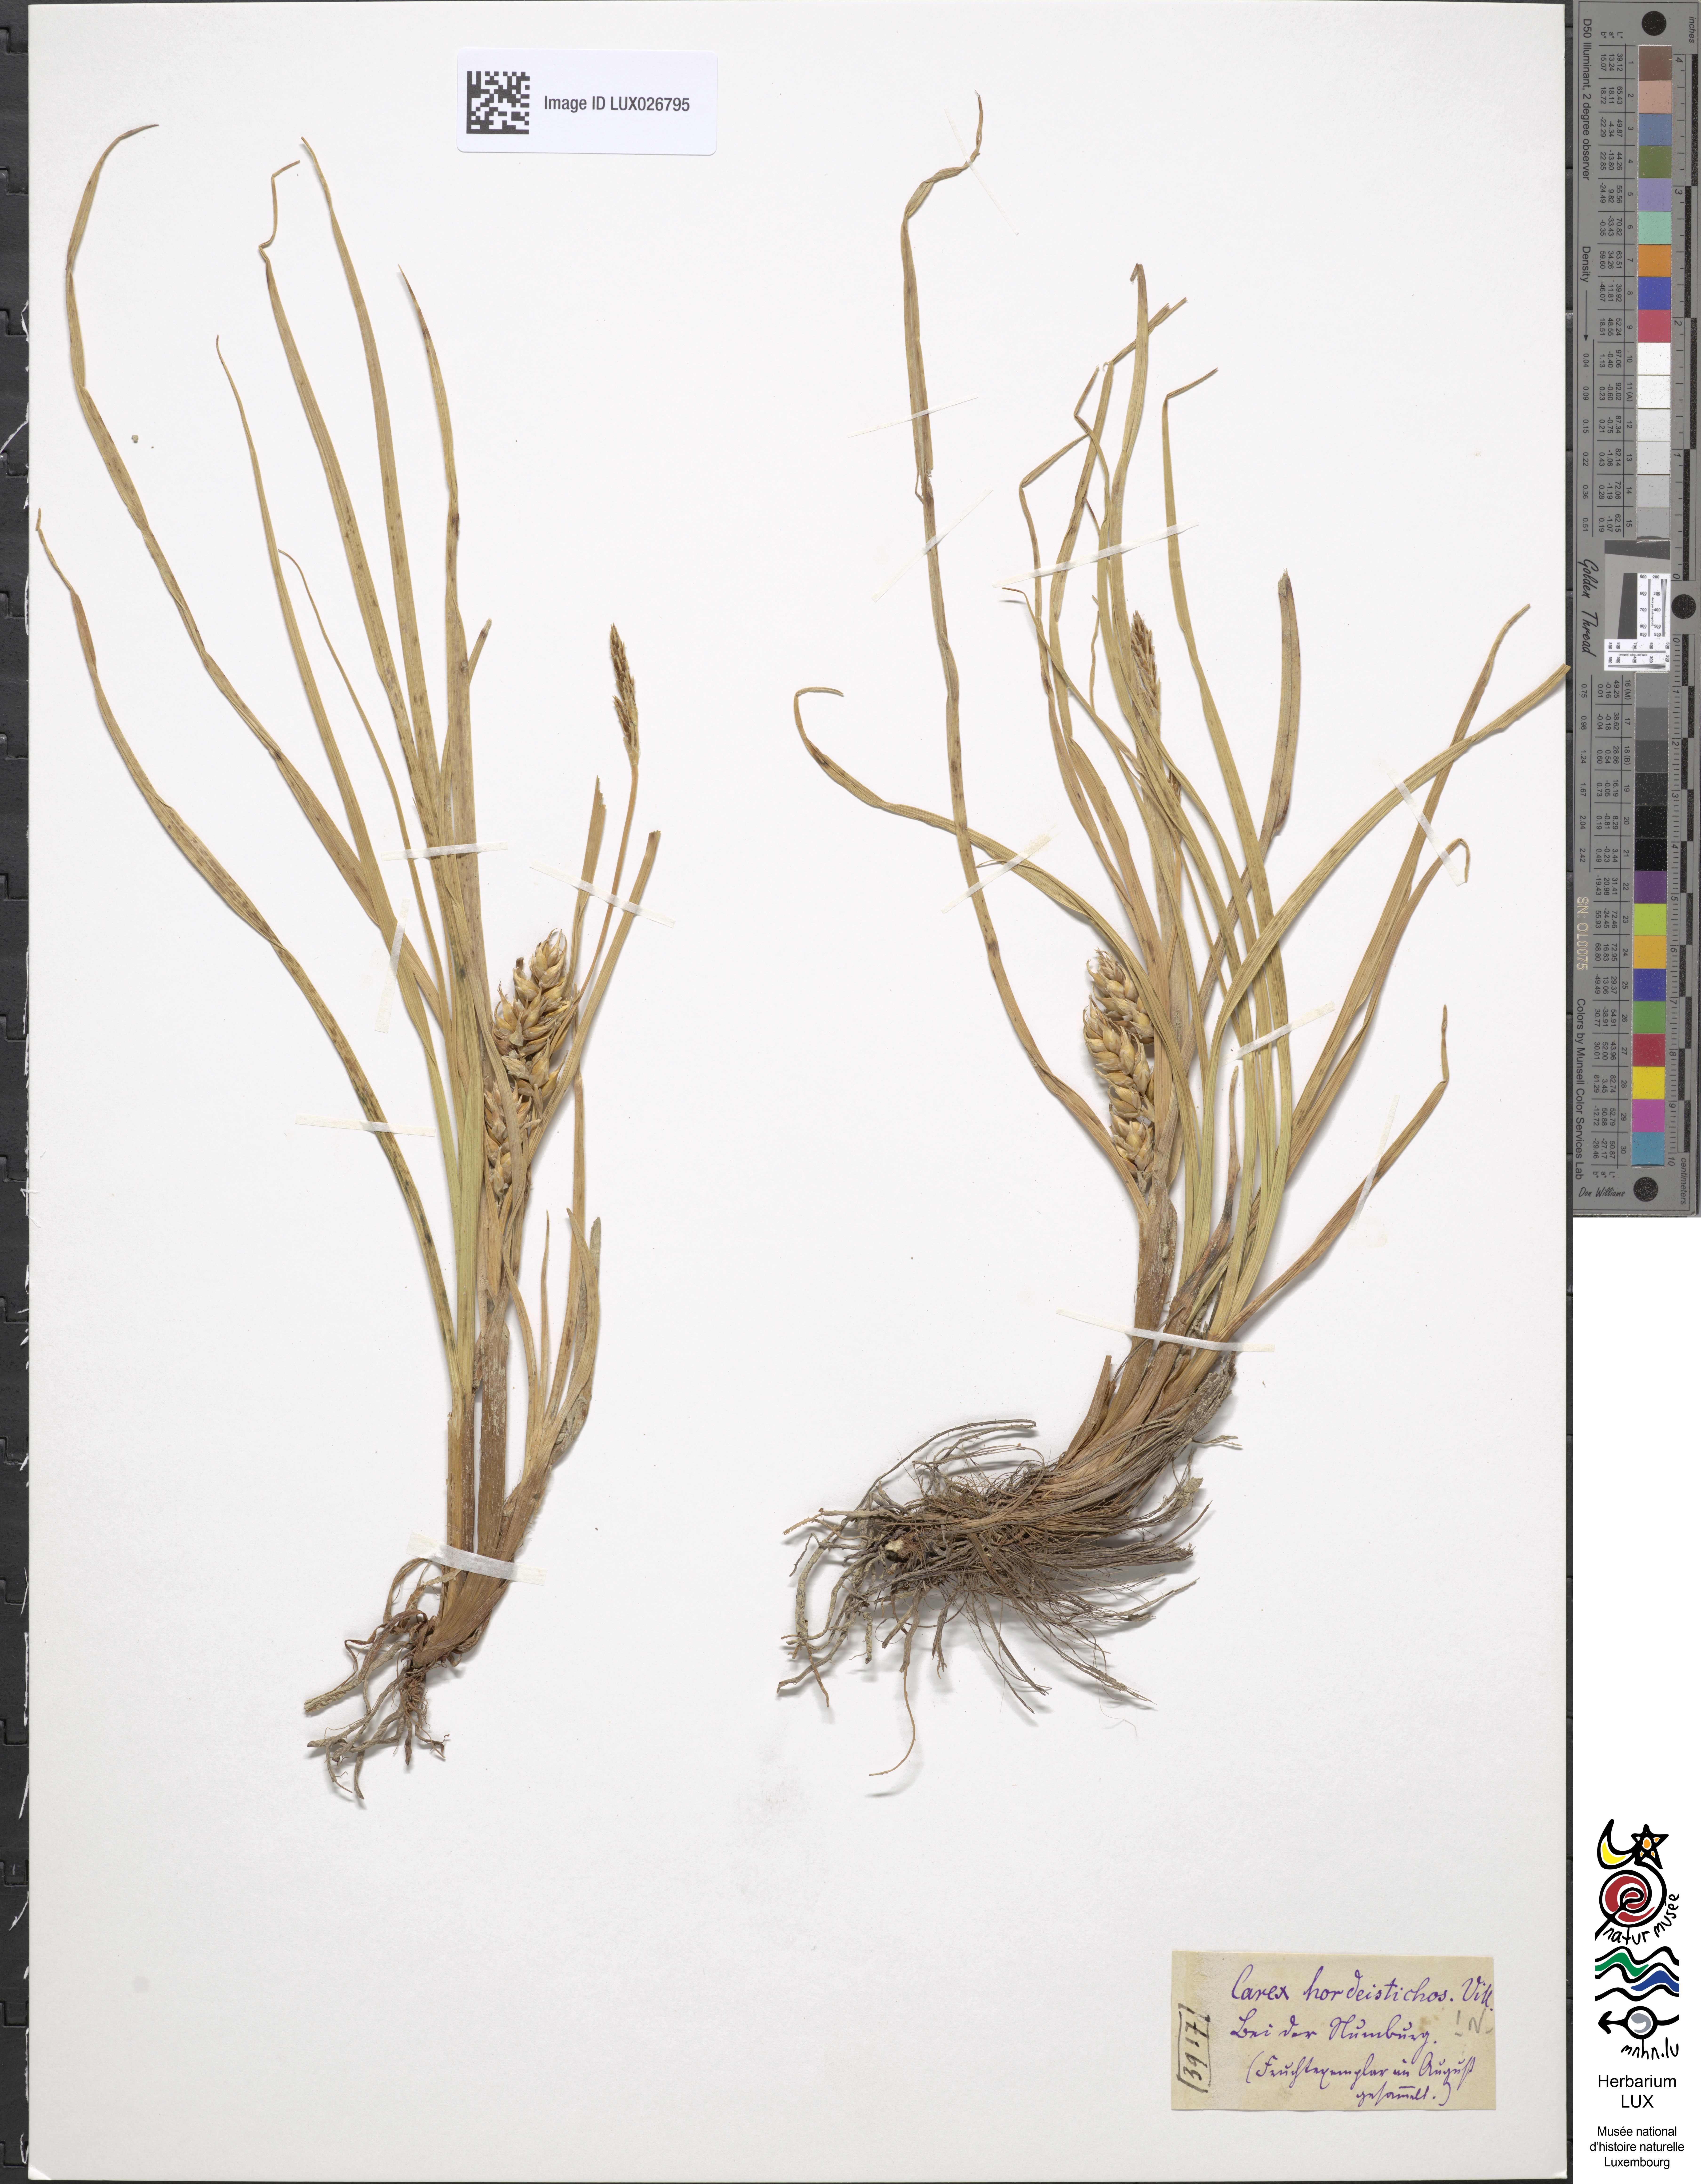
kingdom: Plantae
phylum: Tracheophyta
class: Liliopsida
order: Poales
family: Cyperaceae
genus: Carex
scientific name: Carex hordeistichos
